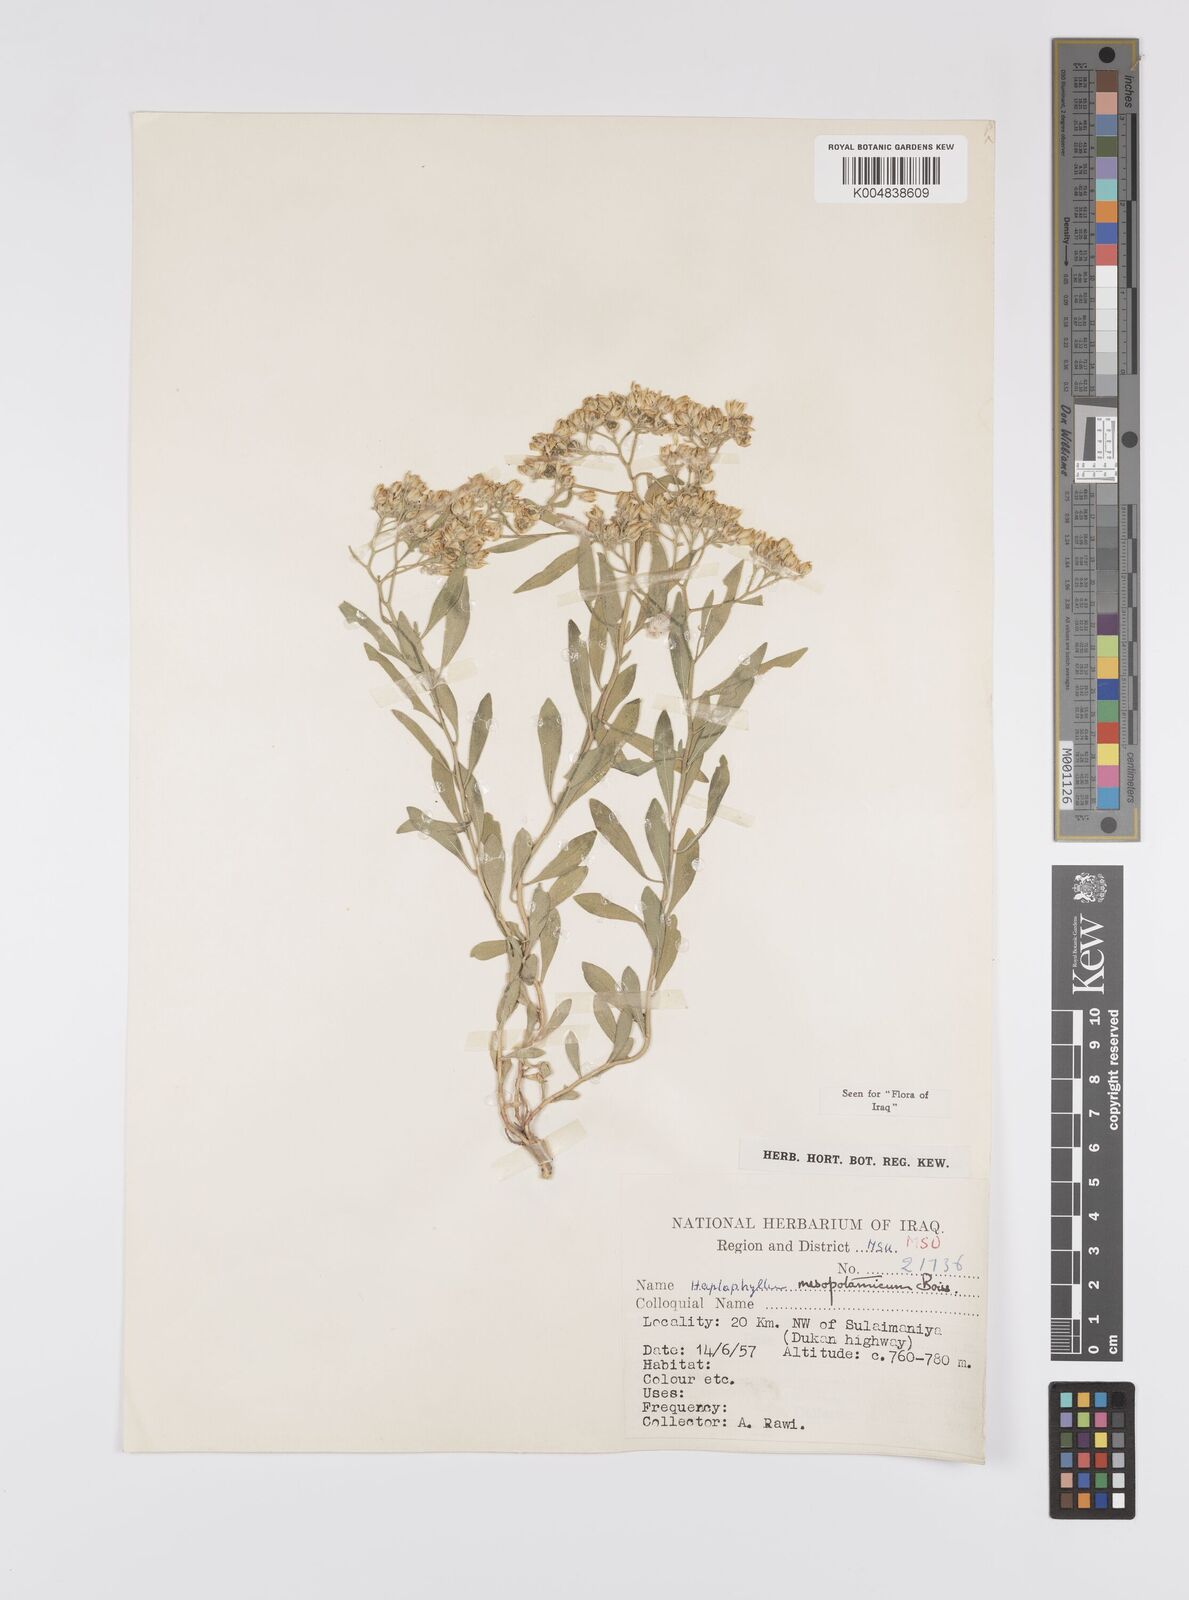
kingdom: Plantae
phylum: Tracheophyta
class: Magnoliopsida
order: Sapindales
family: Rutaceae
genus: Haplophyllum
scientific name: Haplophyllum buxbaumii
